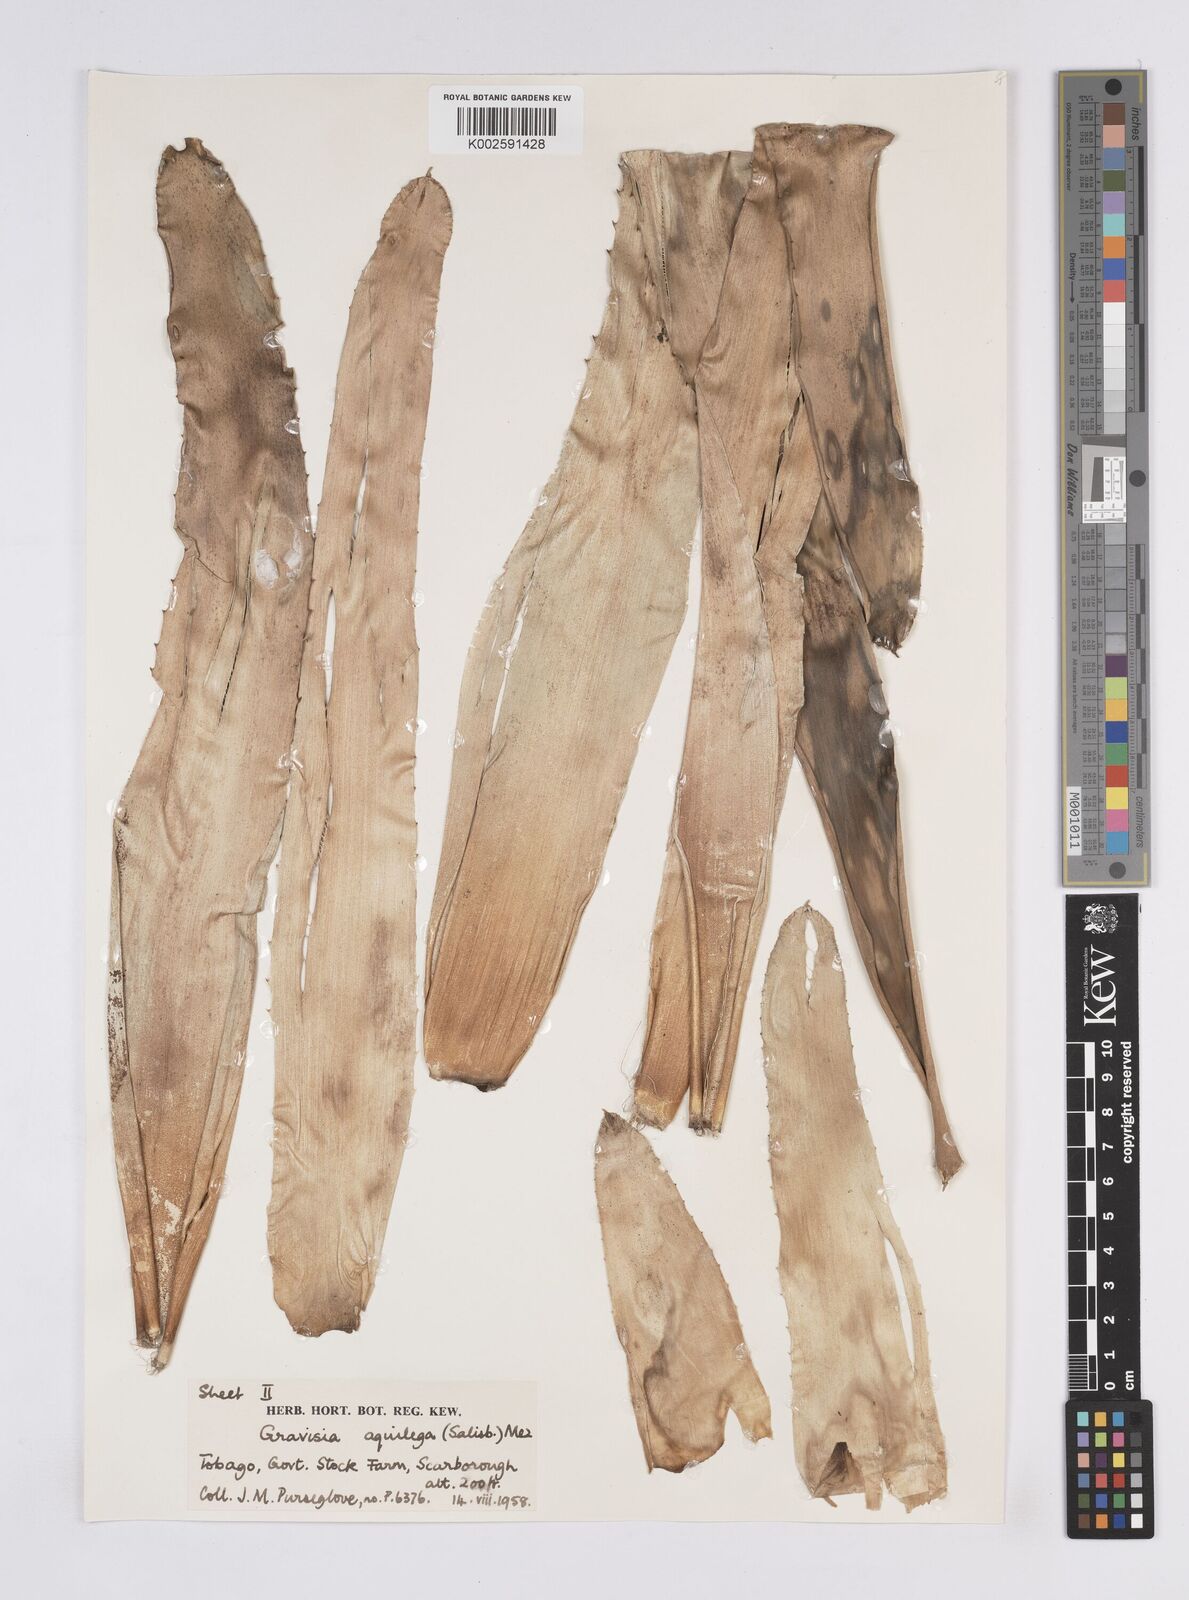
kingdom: Plantae
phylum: Tracheophyta
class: Liliopsida
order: Poales
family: Bromeliaceae
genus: Aechmea
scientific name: Aechmea aquilega
